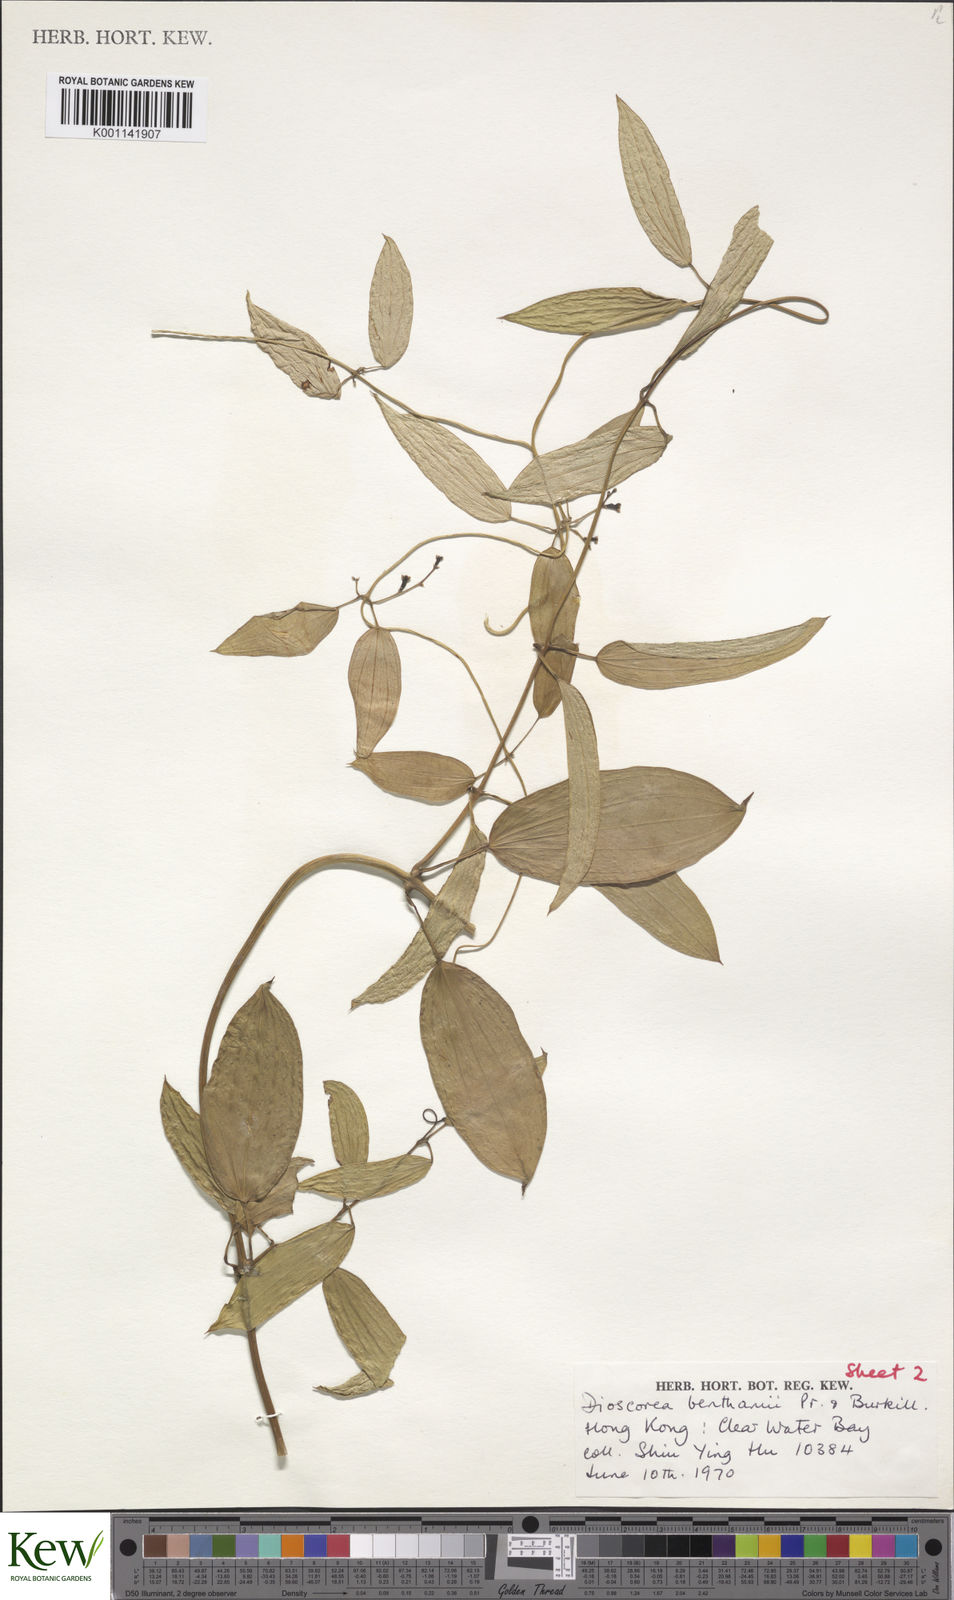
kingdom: Plantae
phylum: Tracheophyta
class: Liliopsida
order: Dioscoreales
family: Dioscoreaceae
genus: Dioscorea
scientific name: Dioscorea benthamii
